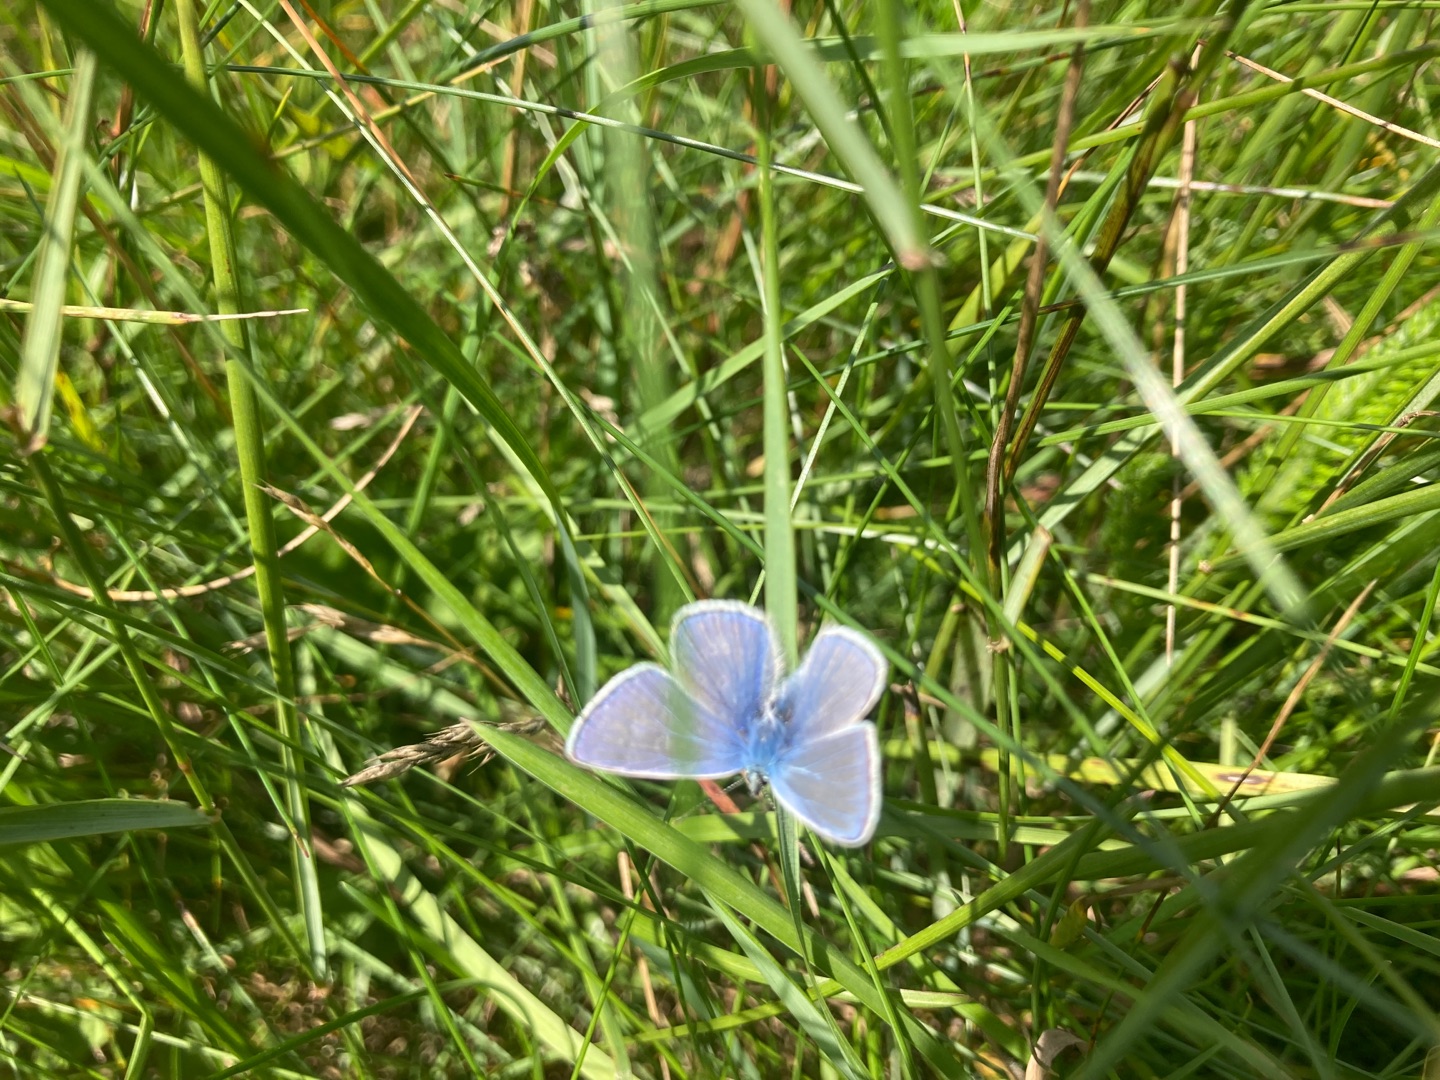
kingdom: Animalia
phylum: Arthropoda
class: Insecta
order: Lepidoptera
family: Lycaenidae
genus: Polyommatus
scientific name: Polyommatus icarus
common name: Almindelig blåfugl
